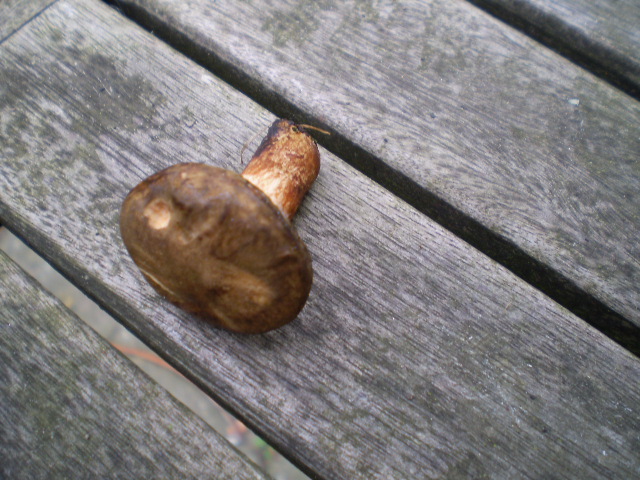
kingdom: Fungi
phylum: Basidiomycota
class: Agaricomycetes
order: Boletales
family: Paxillaceae
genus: Paxillus
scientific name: Paxillus involutus
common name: almindelig netbladhat
